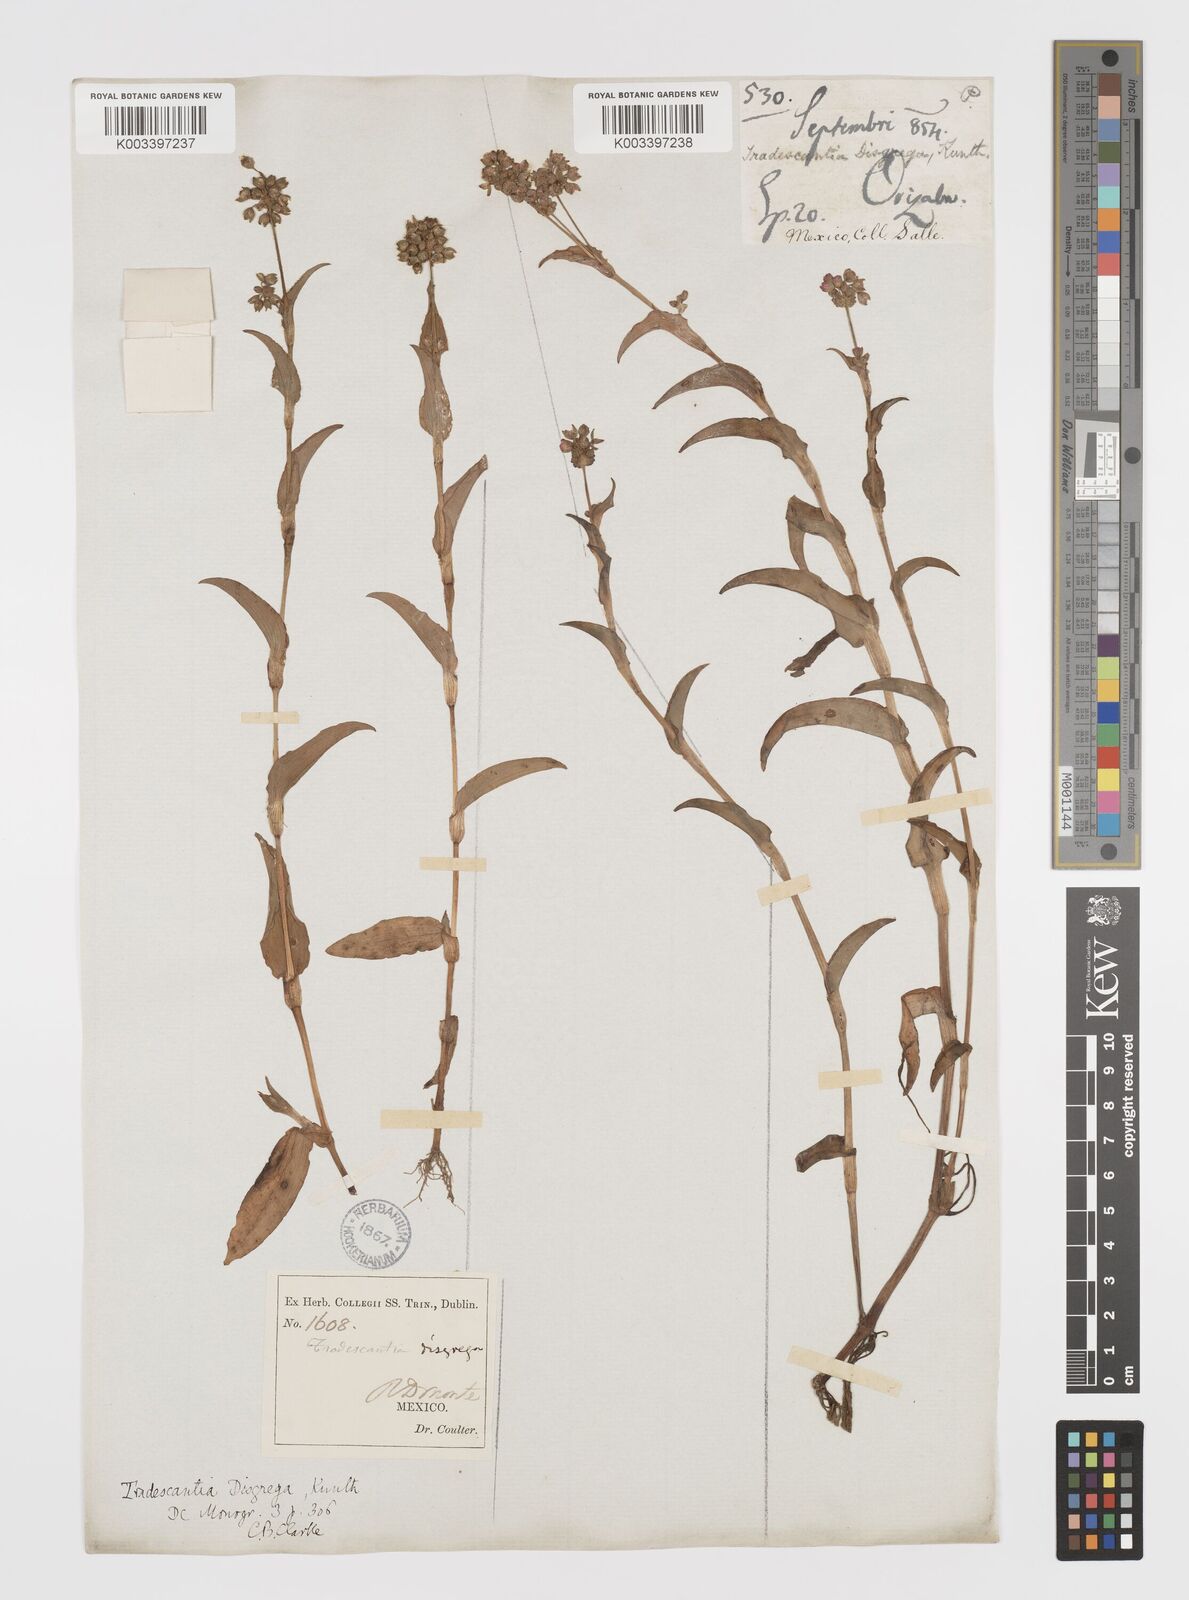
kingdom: Plantae
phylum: Tracheophyta
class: Liliopsida
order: Commelinales
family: Commelinaceae
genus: Callisia
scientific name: Callisia disgrega
